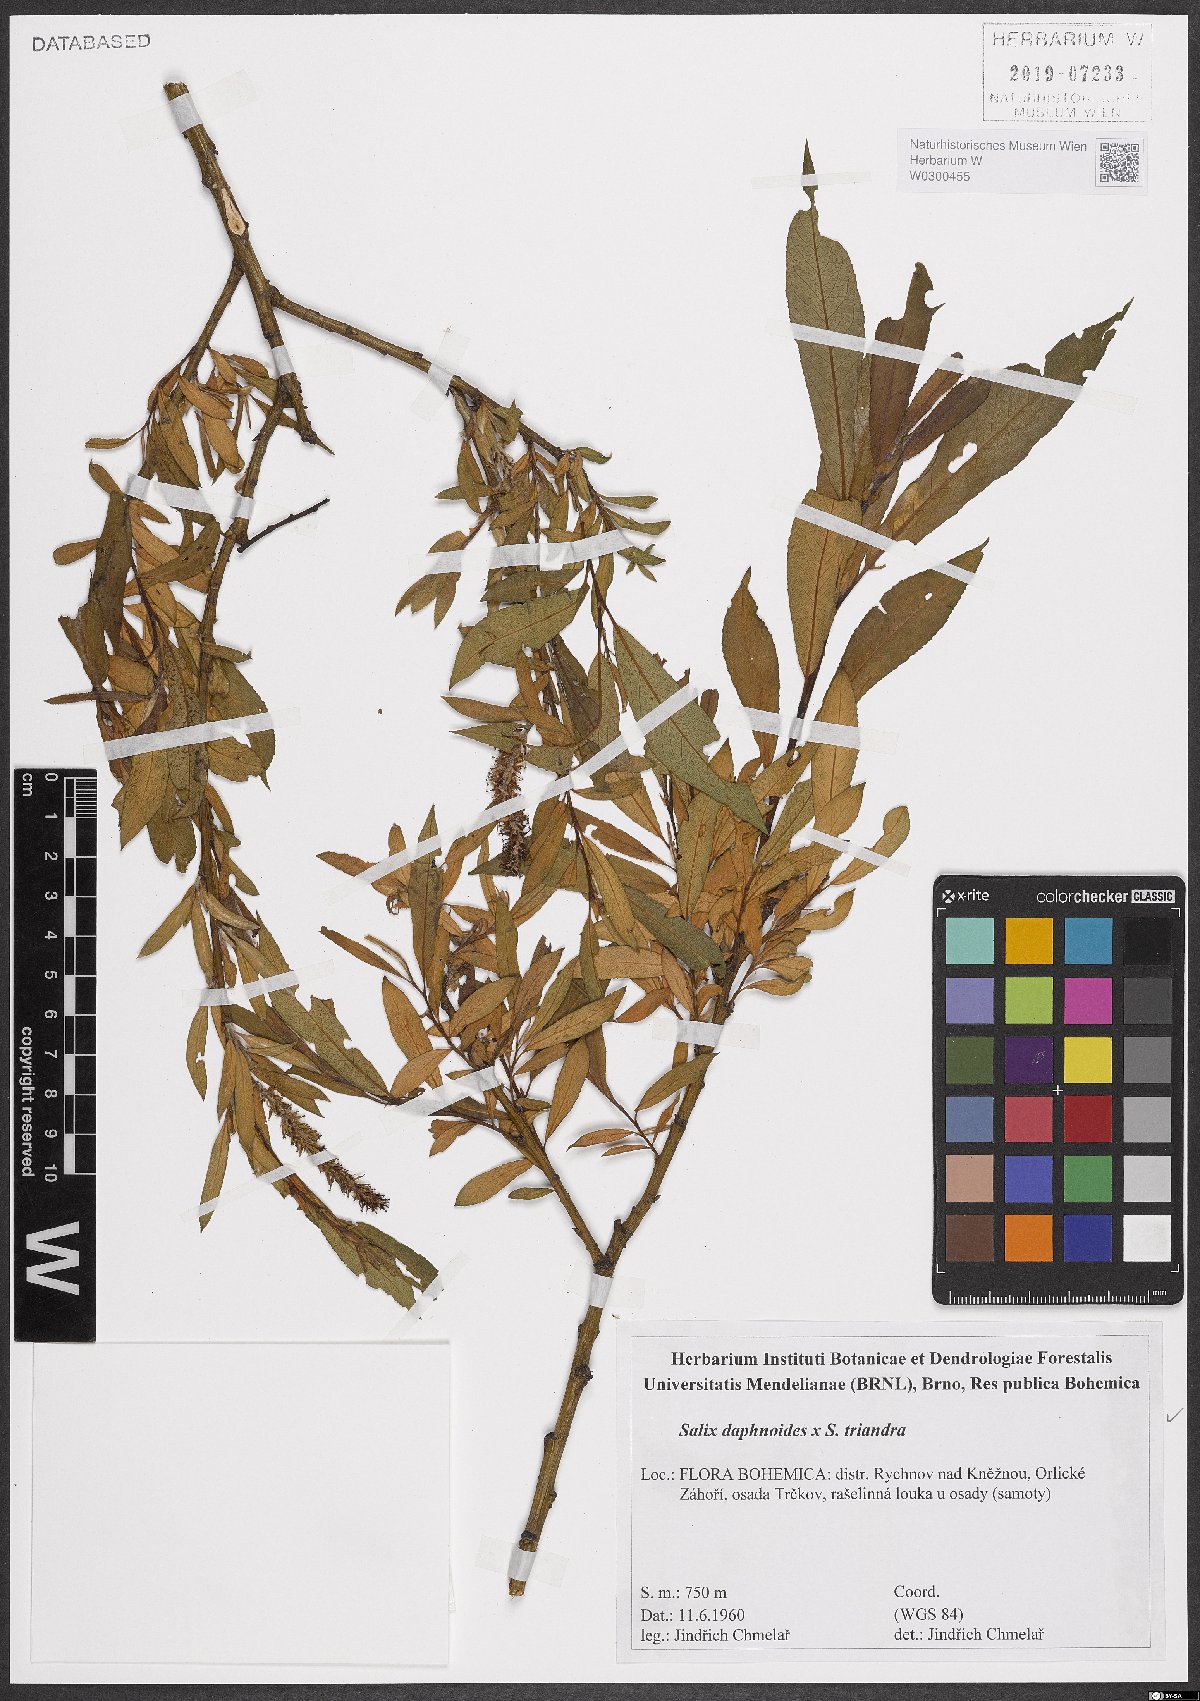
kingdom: Plantae
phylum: Tracheophyta
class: Magnoliopsida
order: Malpighiales
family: Salicaceae
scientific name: Salicaceae
